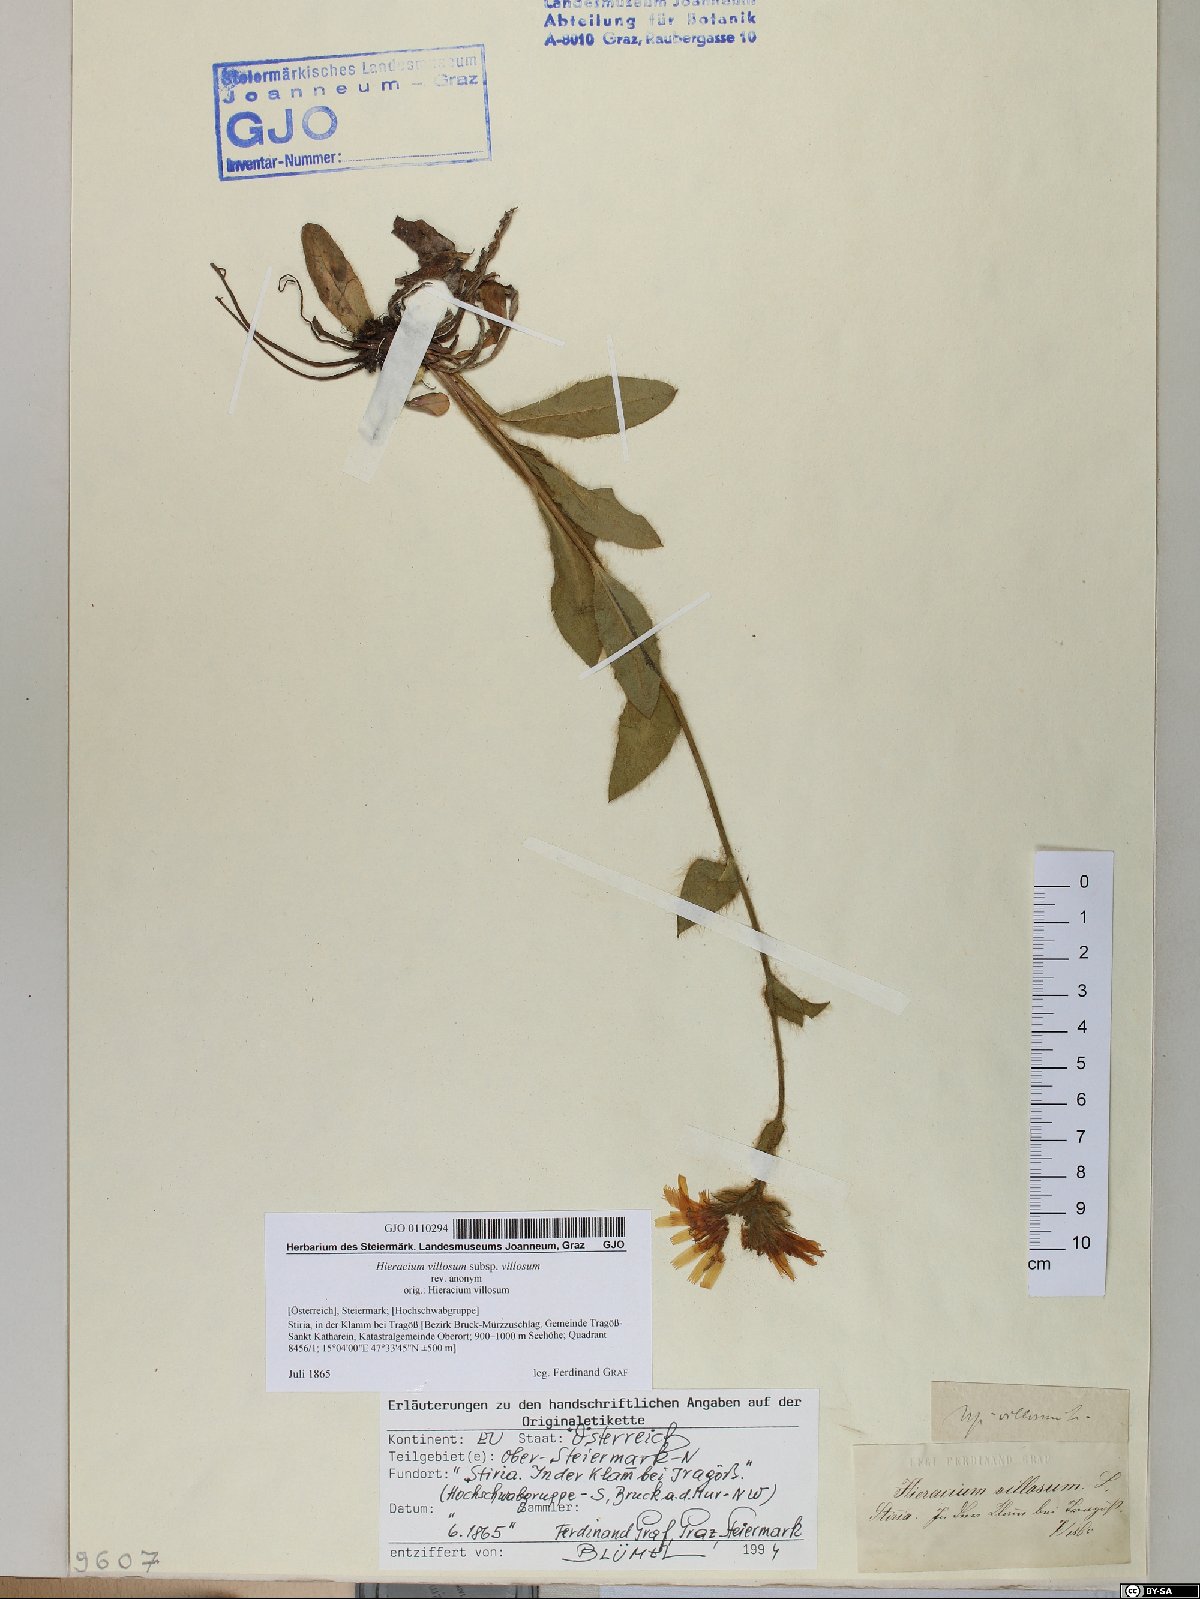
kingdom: Plantae
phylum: Tracheophyta
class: Magnoliopsida
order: Asterales
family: Asteraceae
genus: Hieracium
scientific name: Hieracium villosum
